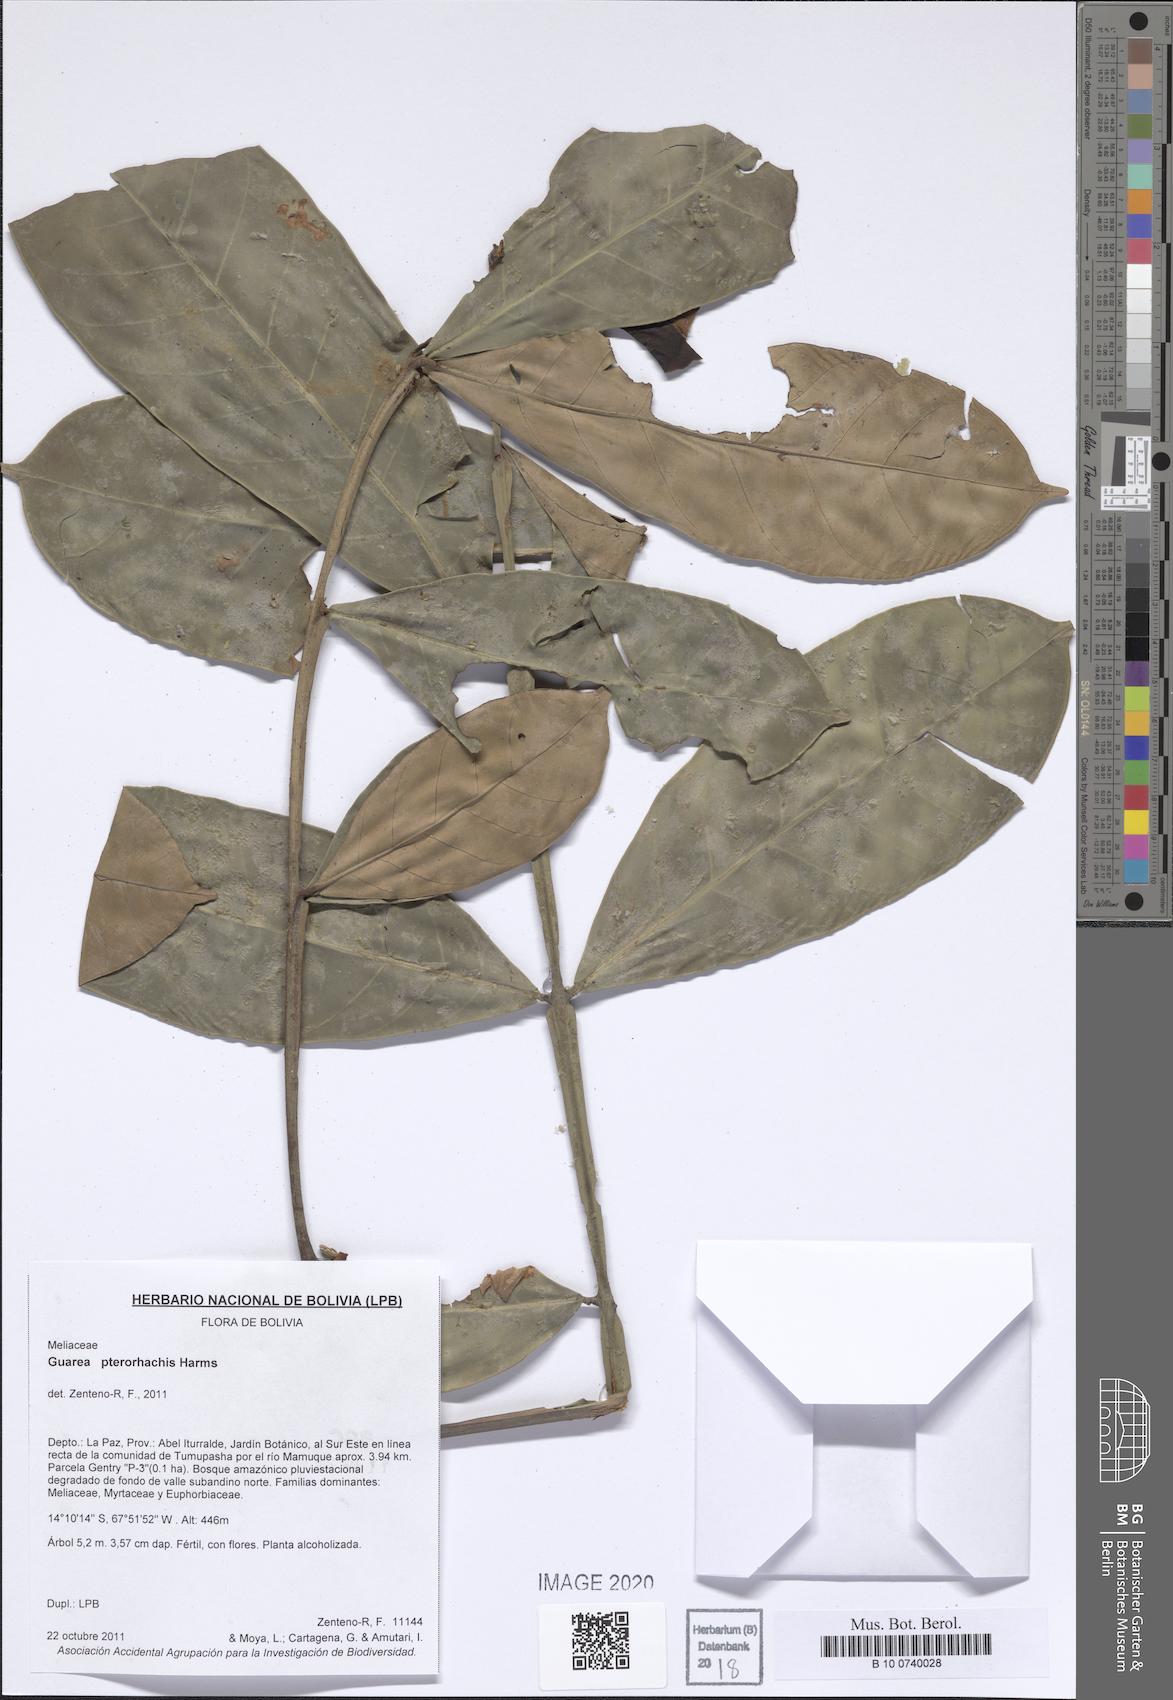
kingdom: Plantae
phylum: Tracheophyta
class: Magnoliopsida
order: Sapindales
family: Meliaceae
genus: Guarea
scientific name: Guarea pterorhachis
